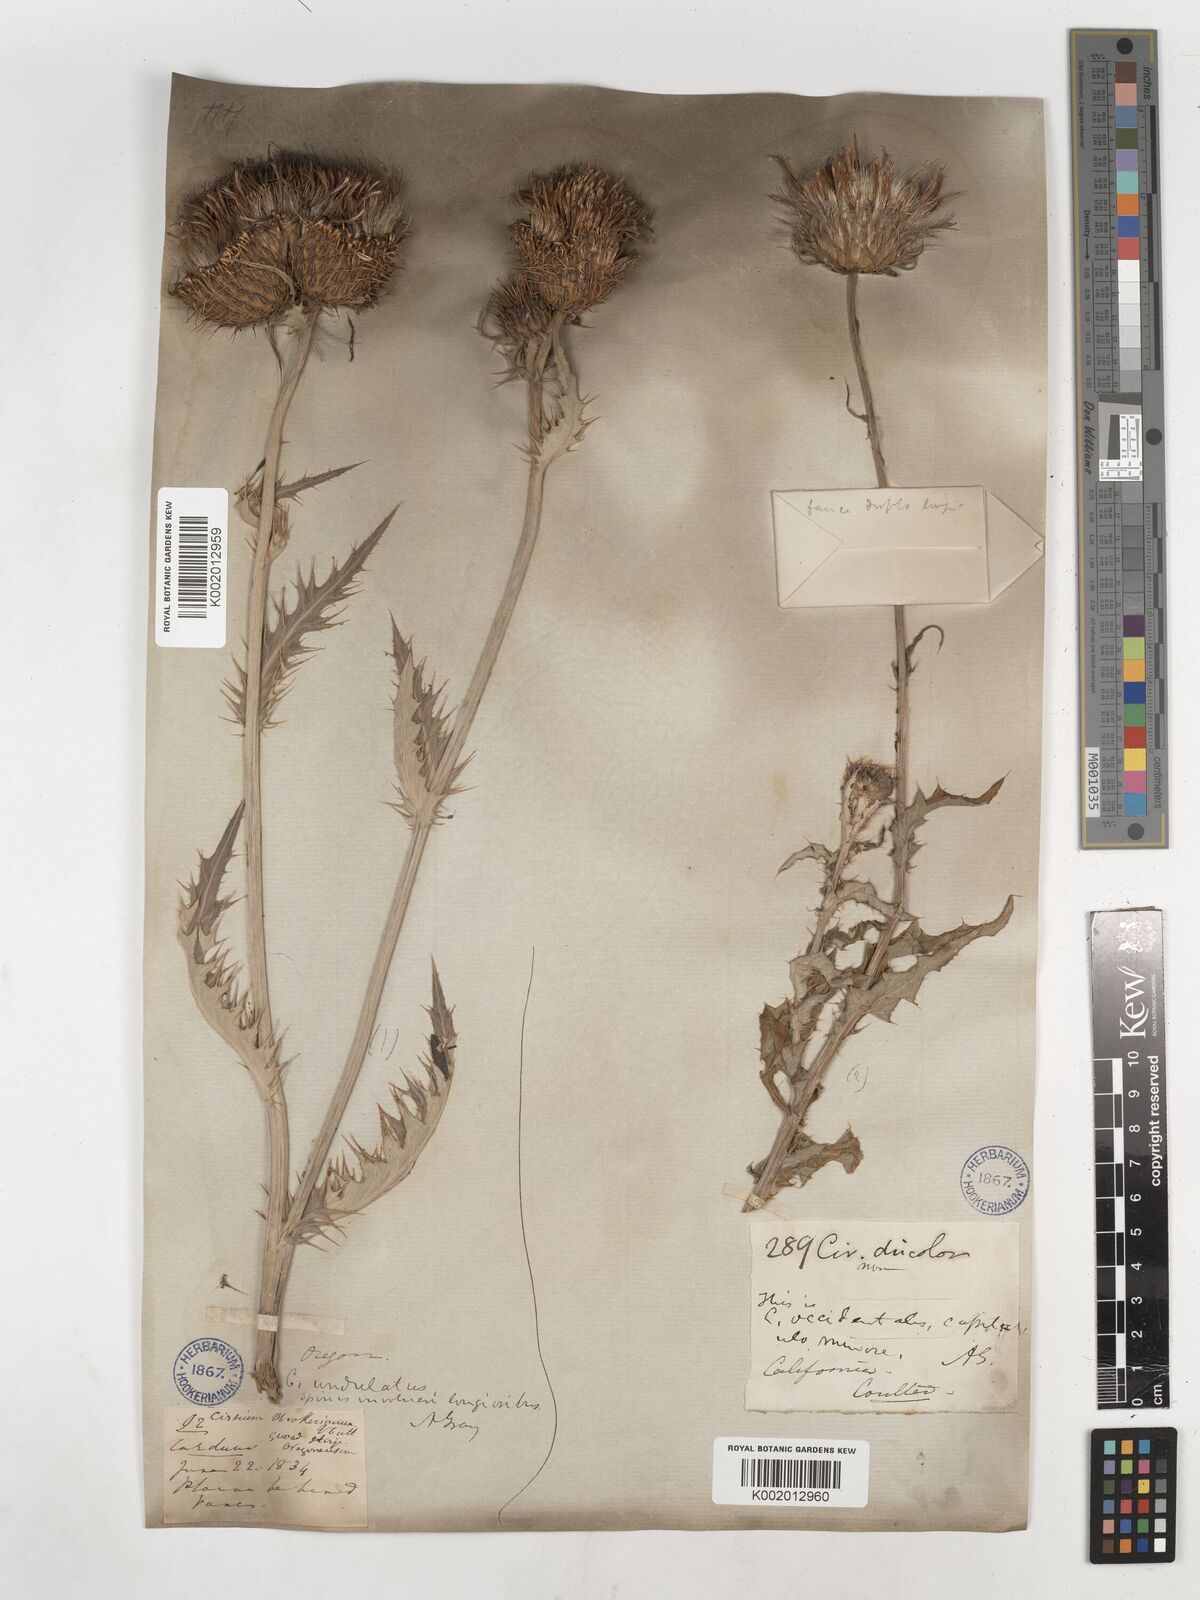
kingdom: Plantae
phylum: Tracheophyta
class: Magnoliopsida
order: Asterales
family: Asteraceae
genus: Cirsium
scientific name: Cirsium occidentale
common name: Western thistle
